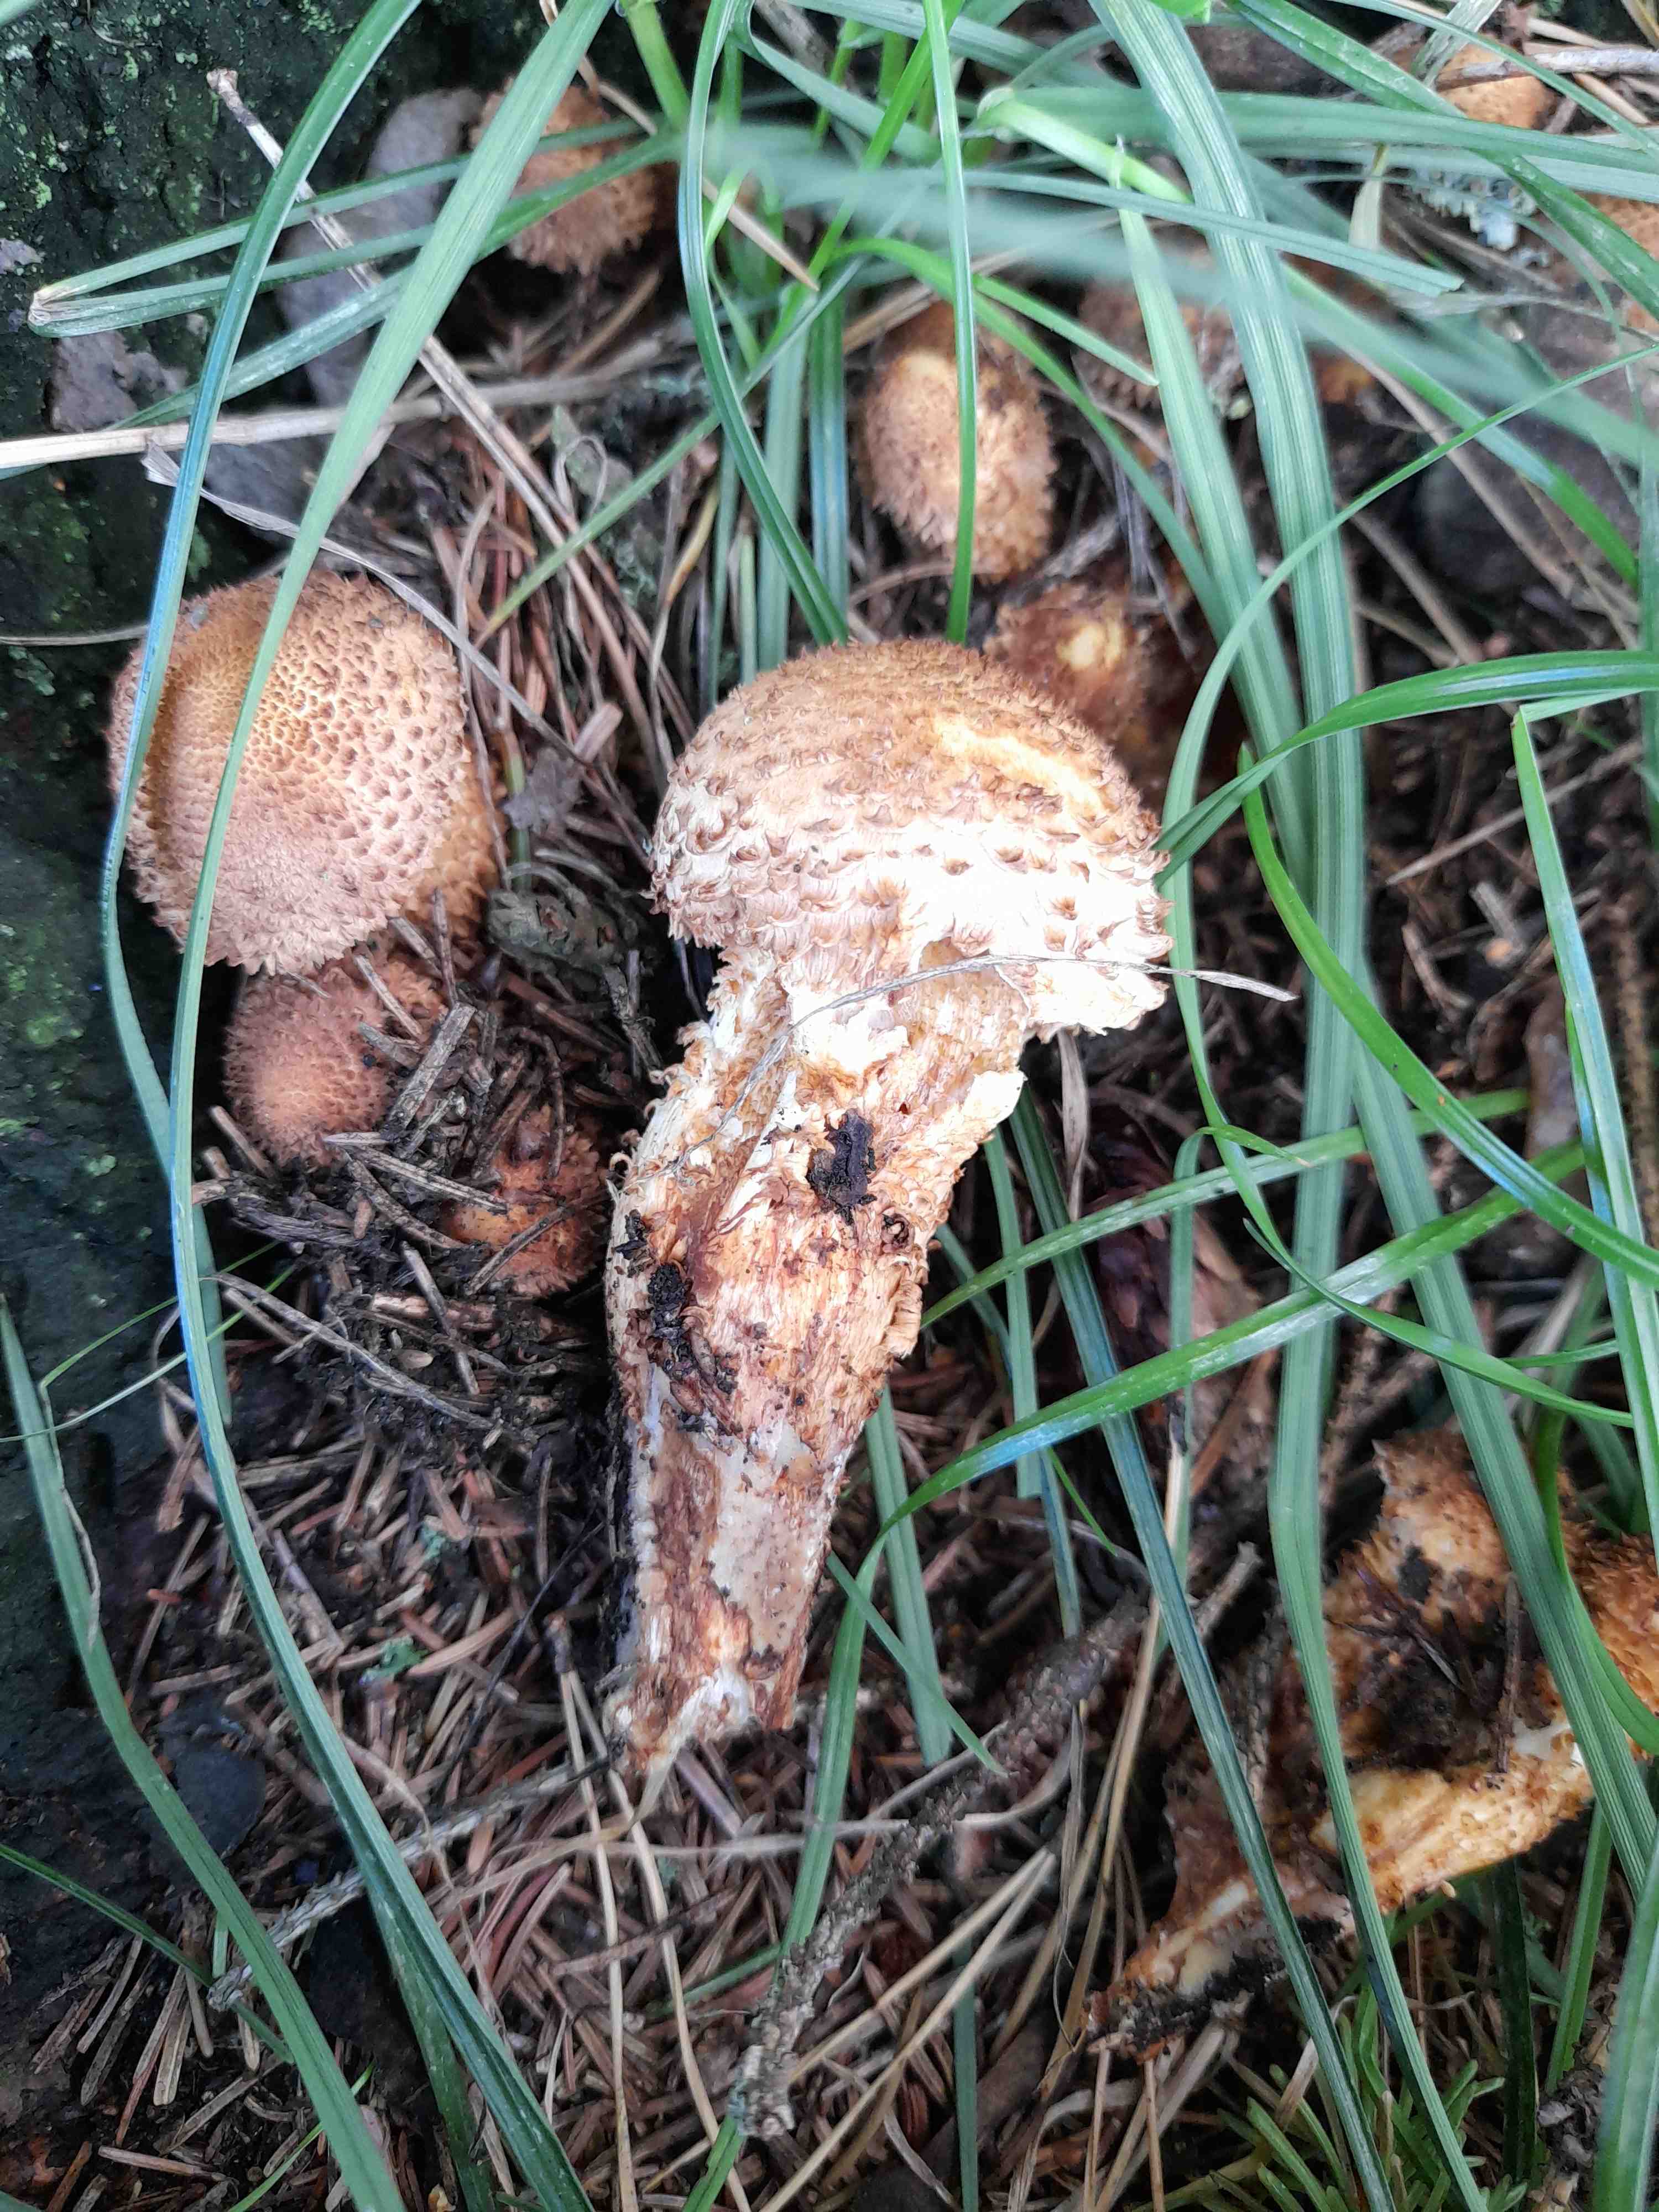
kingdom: Fungi
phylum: Basidiomycota
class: Agaricomycetes
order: Agaricales
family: Strophariaceae
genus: Pholiota
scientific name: Pholiota squarrosa
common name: krumskællet skælhat
